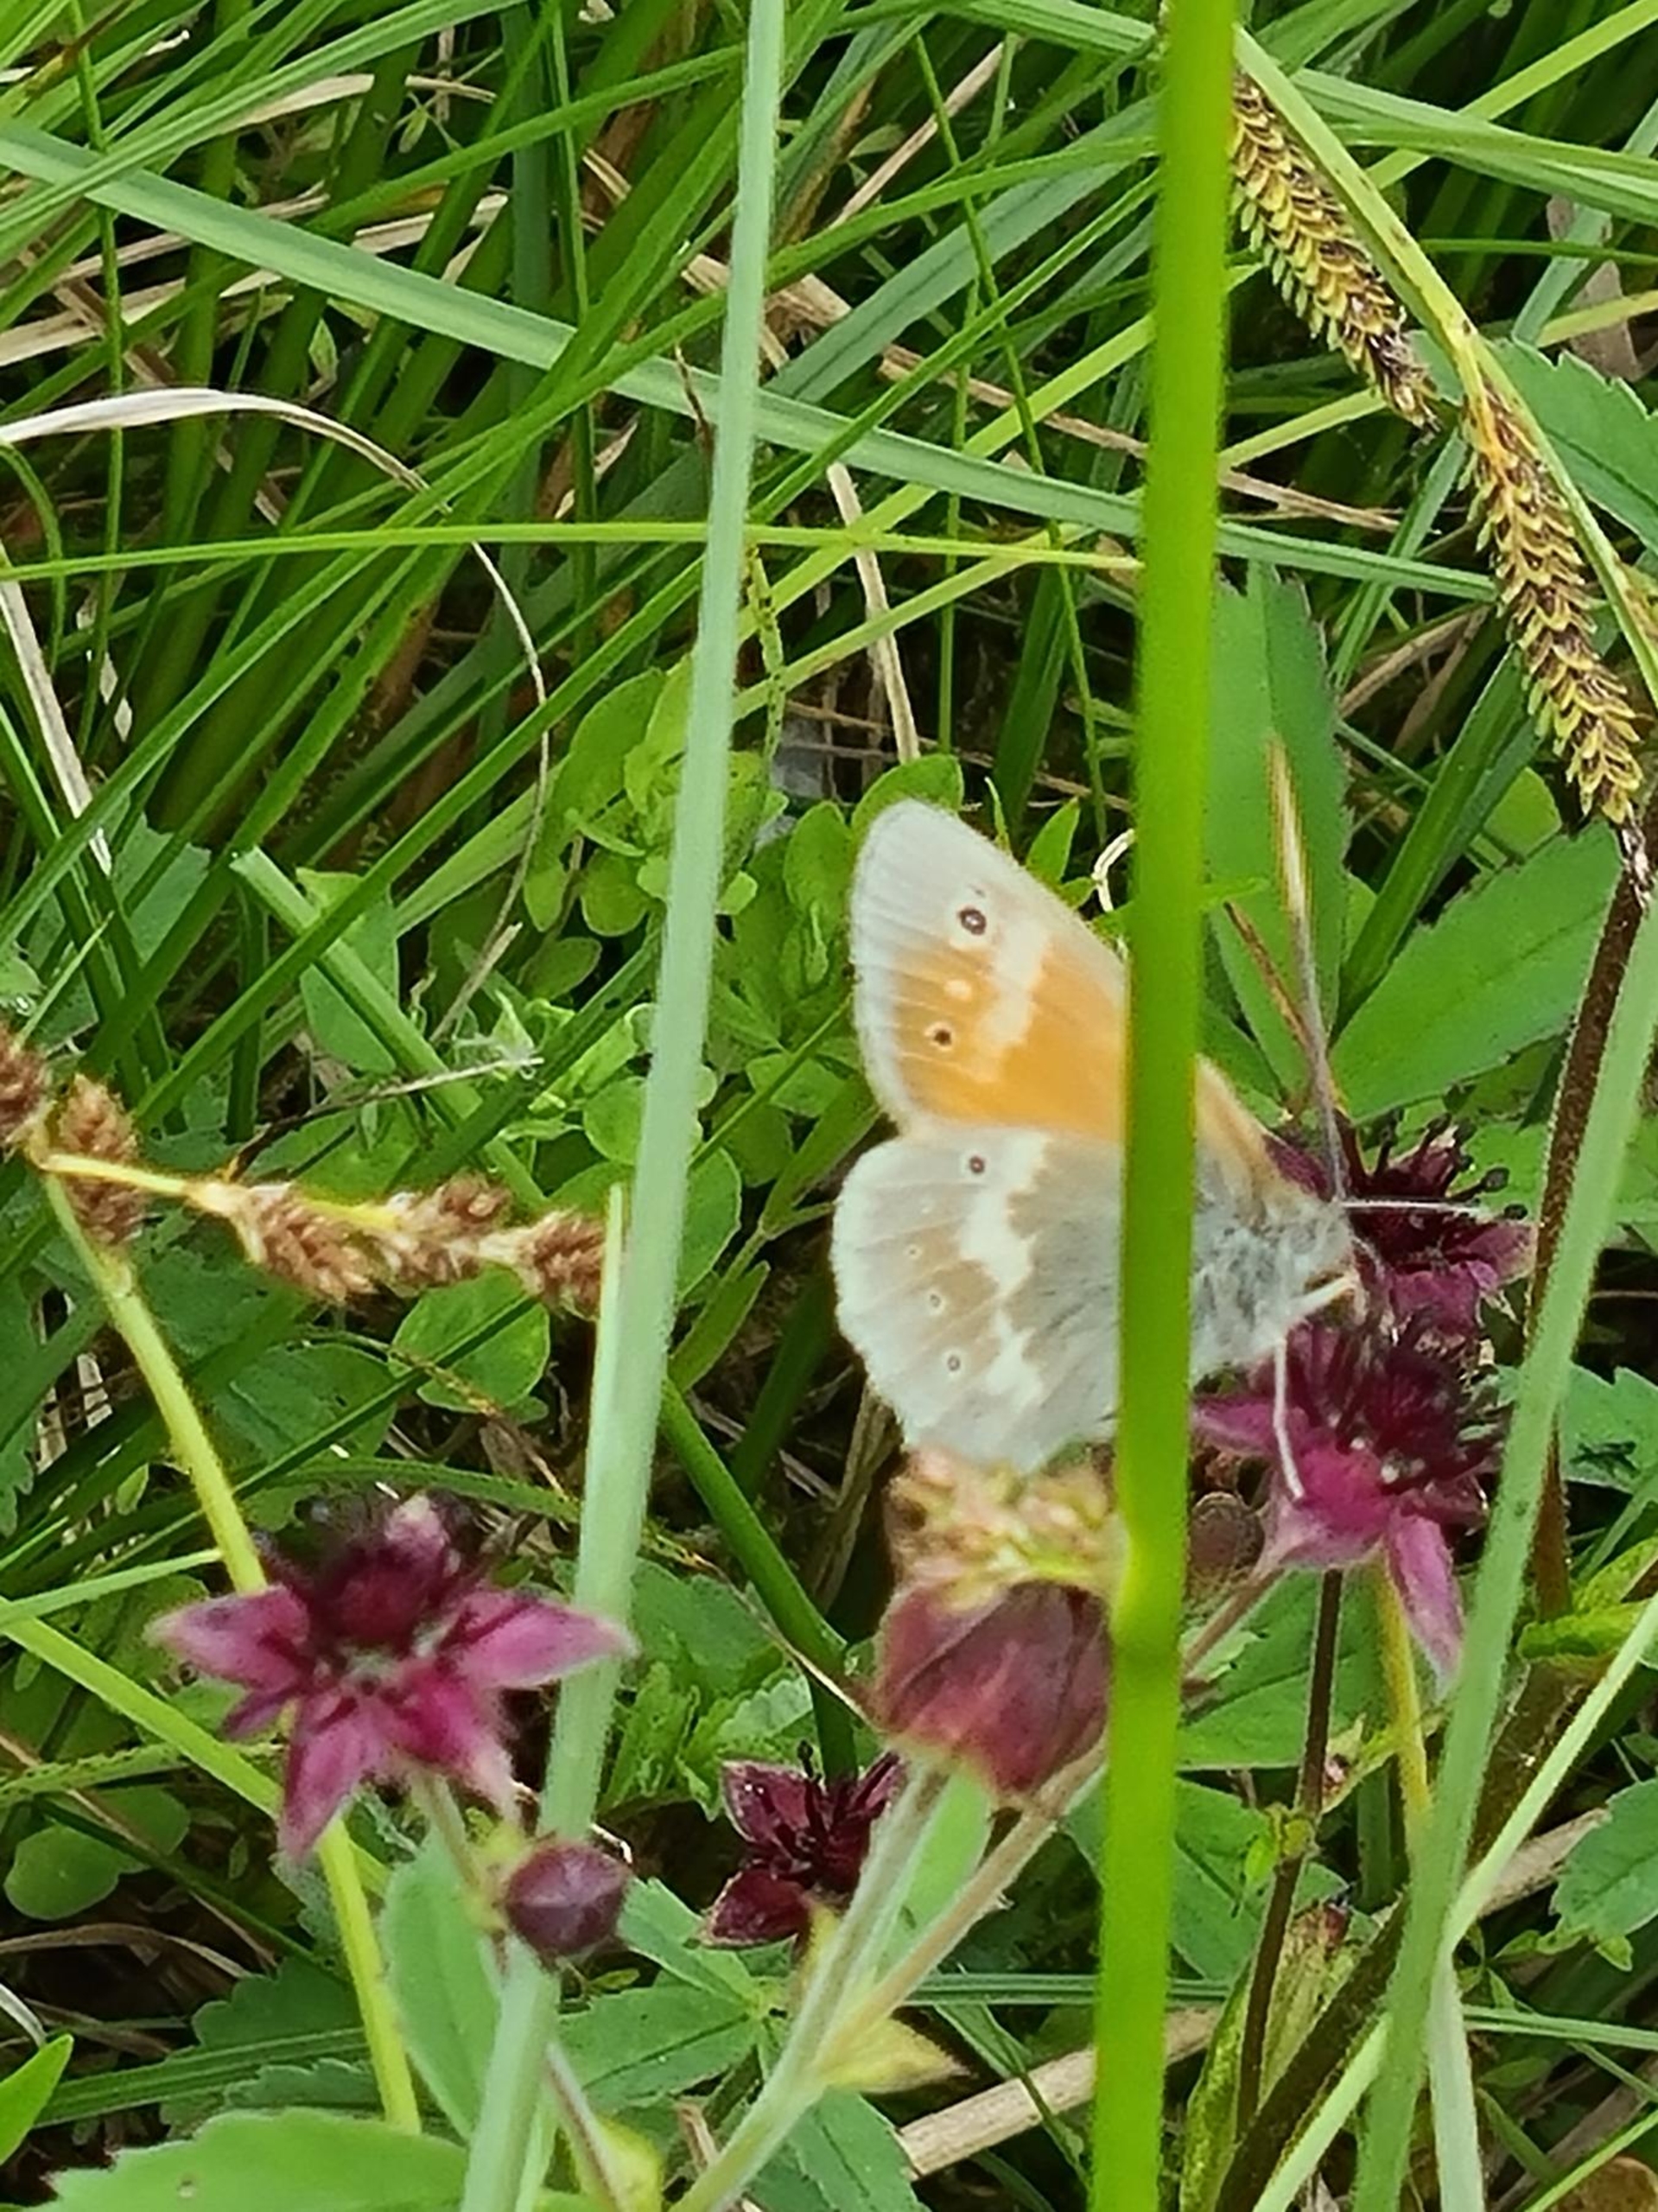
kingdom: Animalia
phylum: Arthropoda
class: Insecta
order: Lepidoptera
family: Nymphalidae
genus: Coenonympha
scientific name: Coenonympha tullia
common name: Moserandøje
